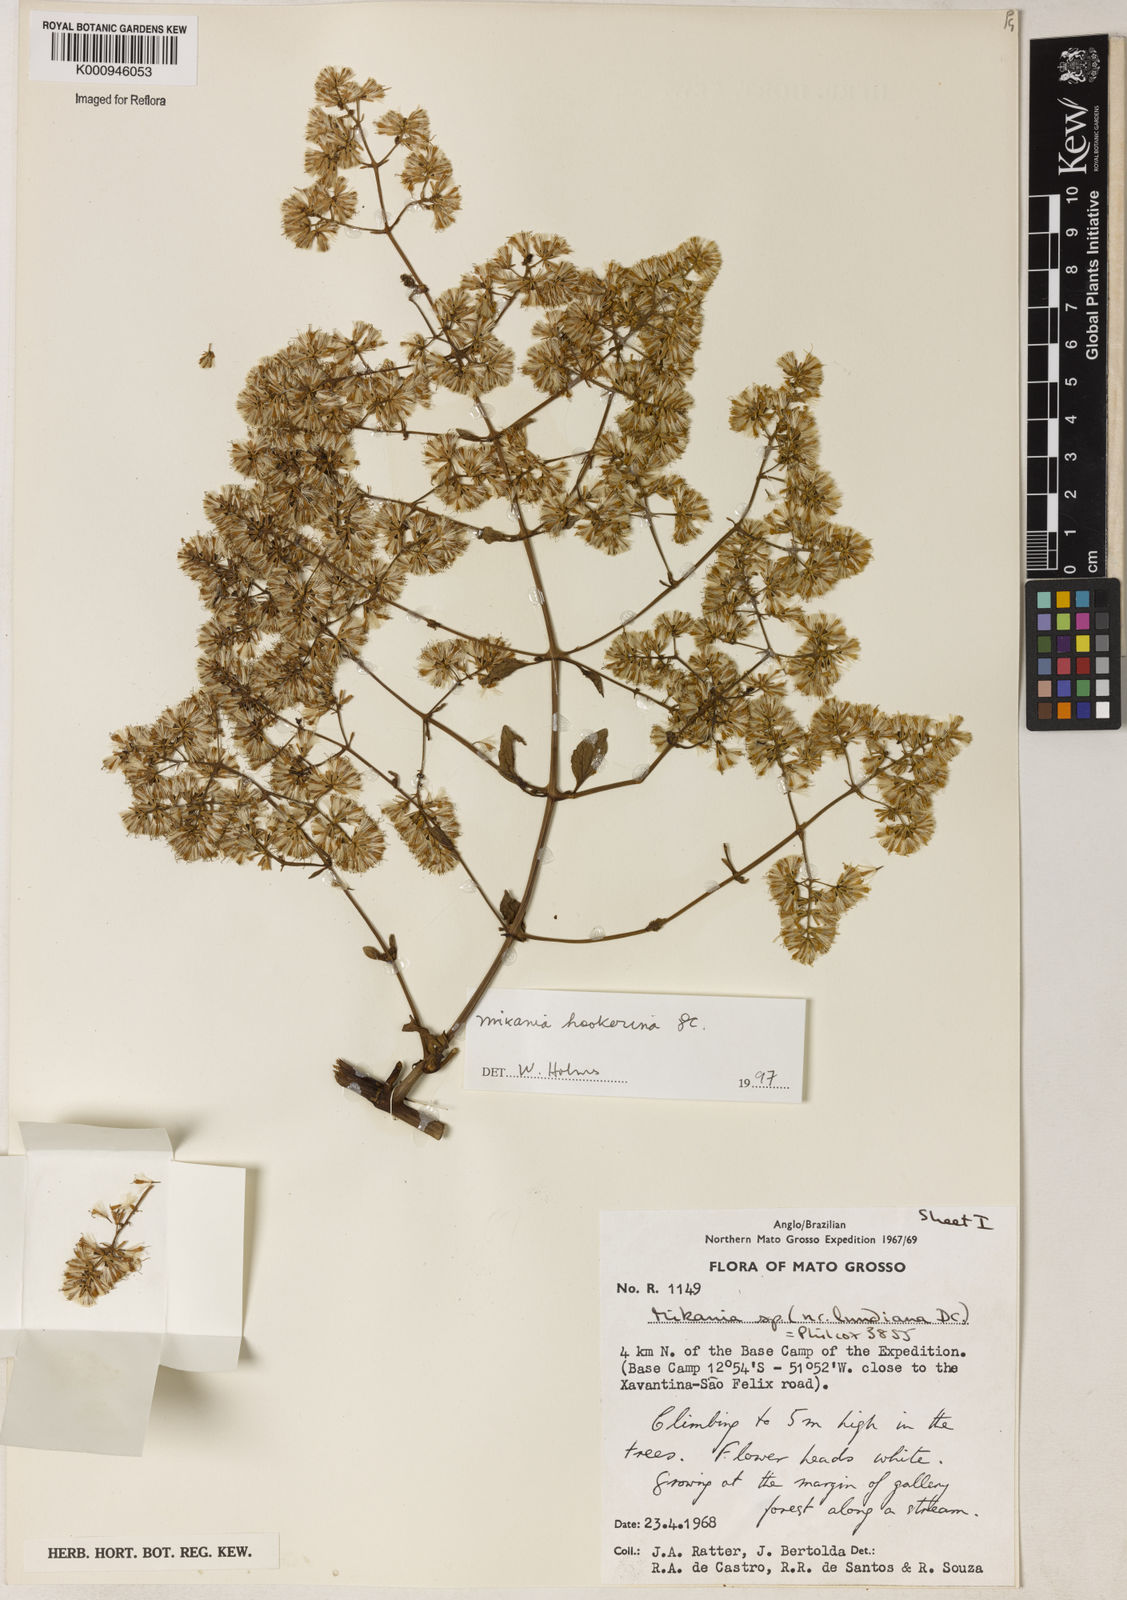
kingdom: Plantae
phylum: Tracheophyta
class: Magnoliopsida
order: Asterales
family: Asteraceae
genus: Mikania
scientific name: Mikania lundiana
